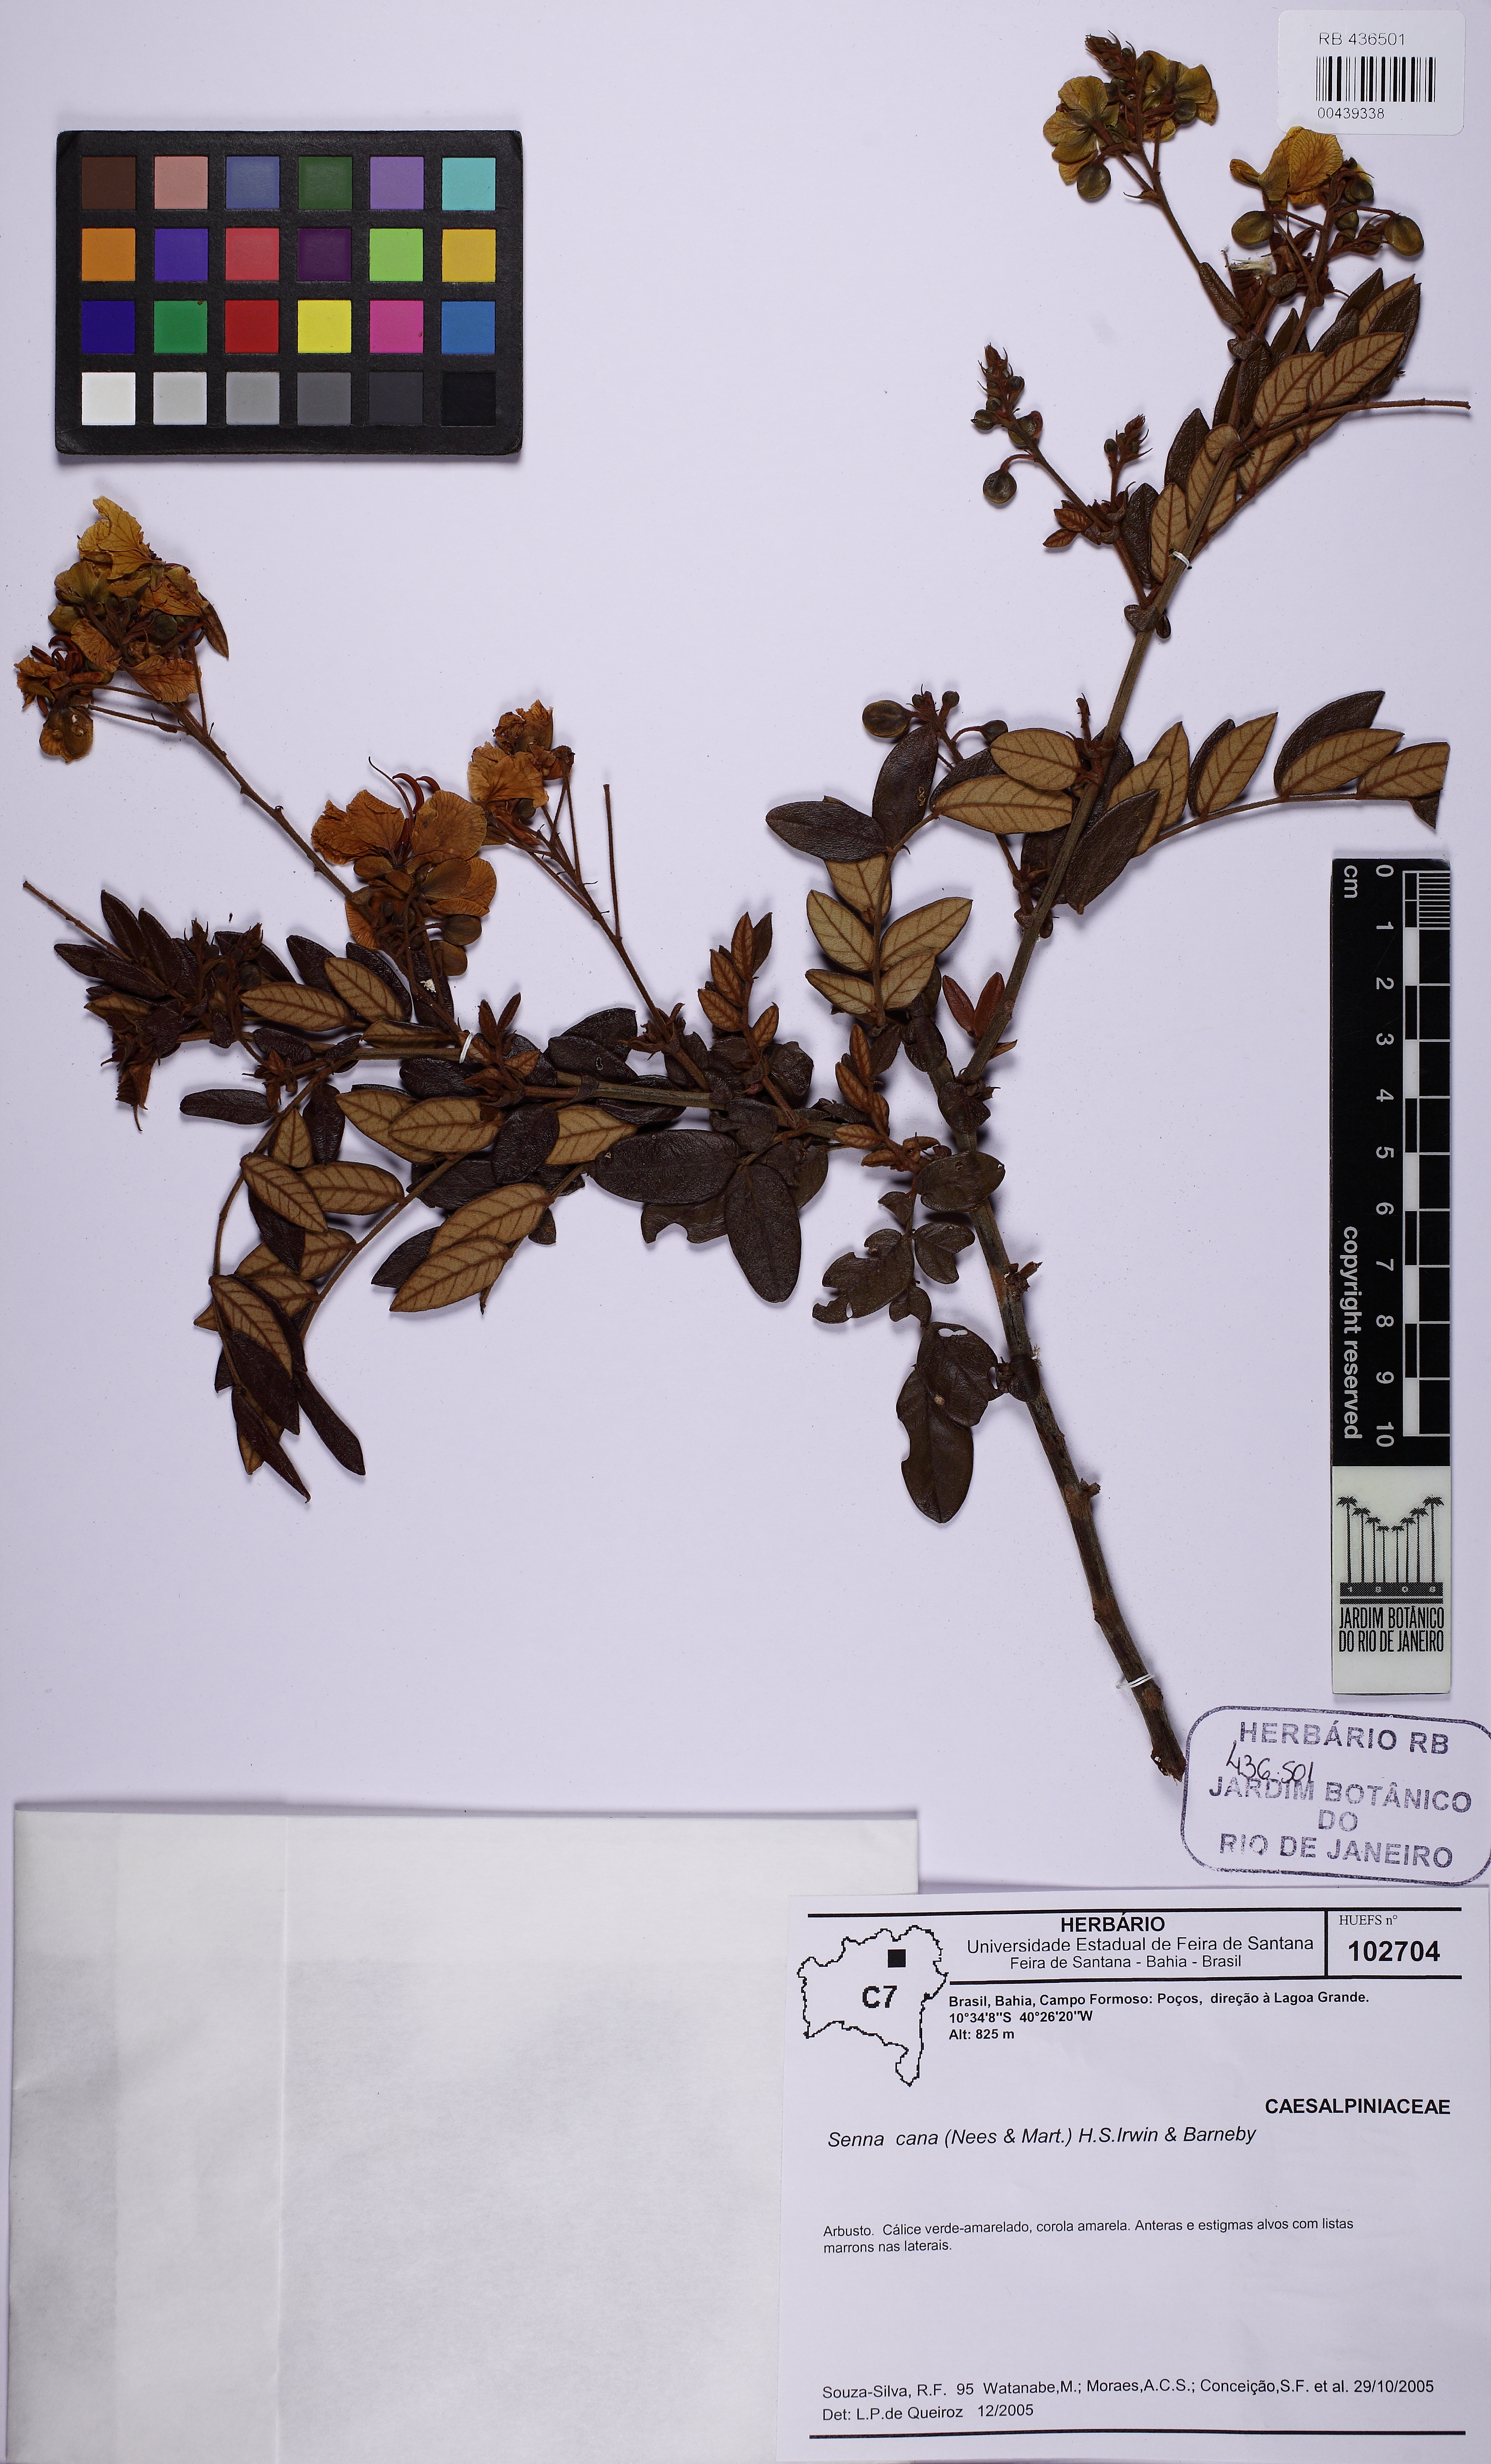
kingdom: Plantae
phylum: Tracheophyta
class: Magnoliopsida
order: Fabales
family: Fabaceae
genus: Senna
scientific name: Senna cana
